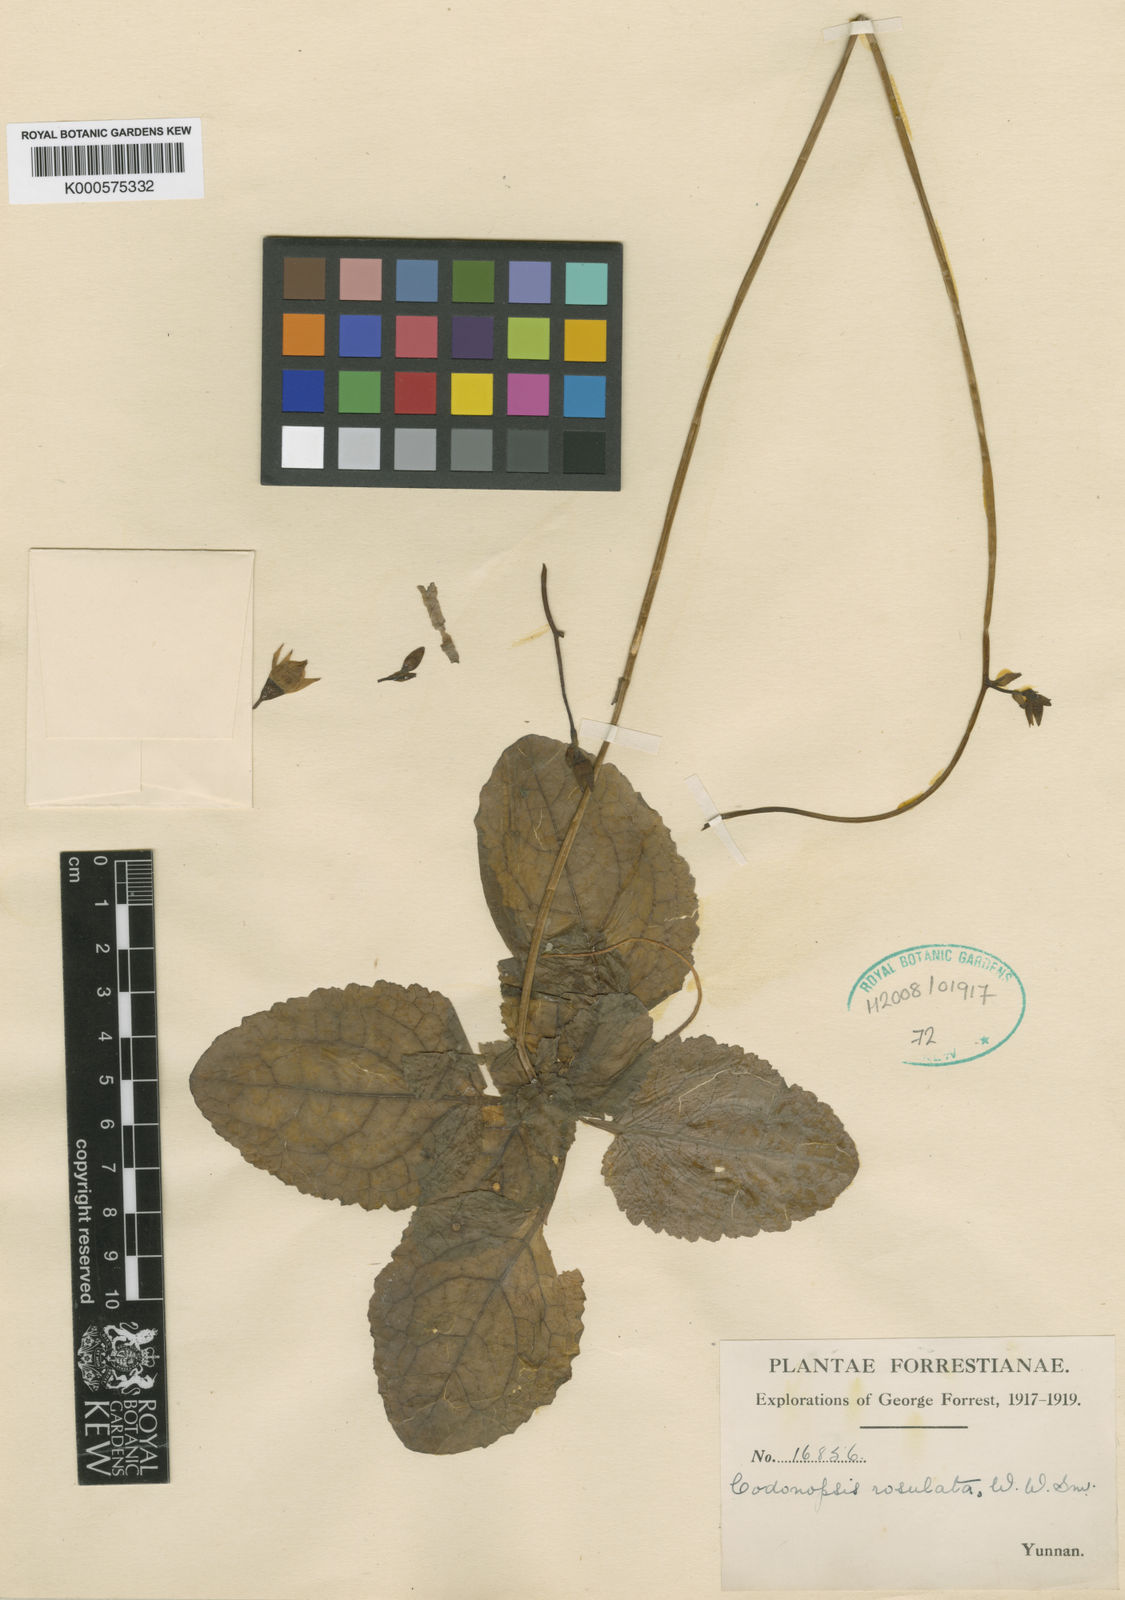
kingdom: Plantae
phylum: Tracheophyta
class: Magnoliopsida
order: Asterales
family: Campanulaceae
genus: Pseudocodon
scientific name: Pseudocodon rosulatus
